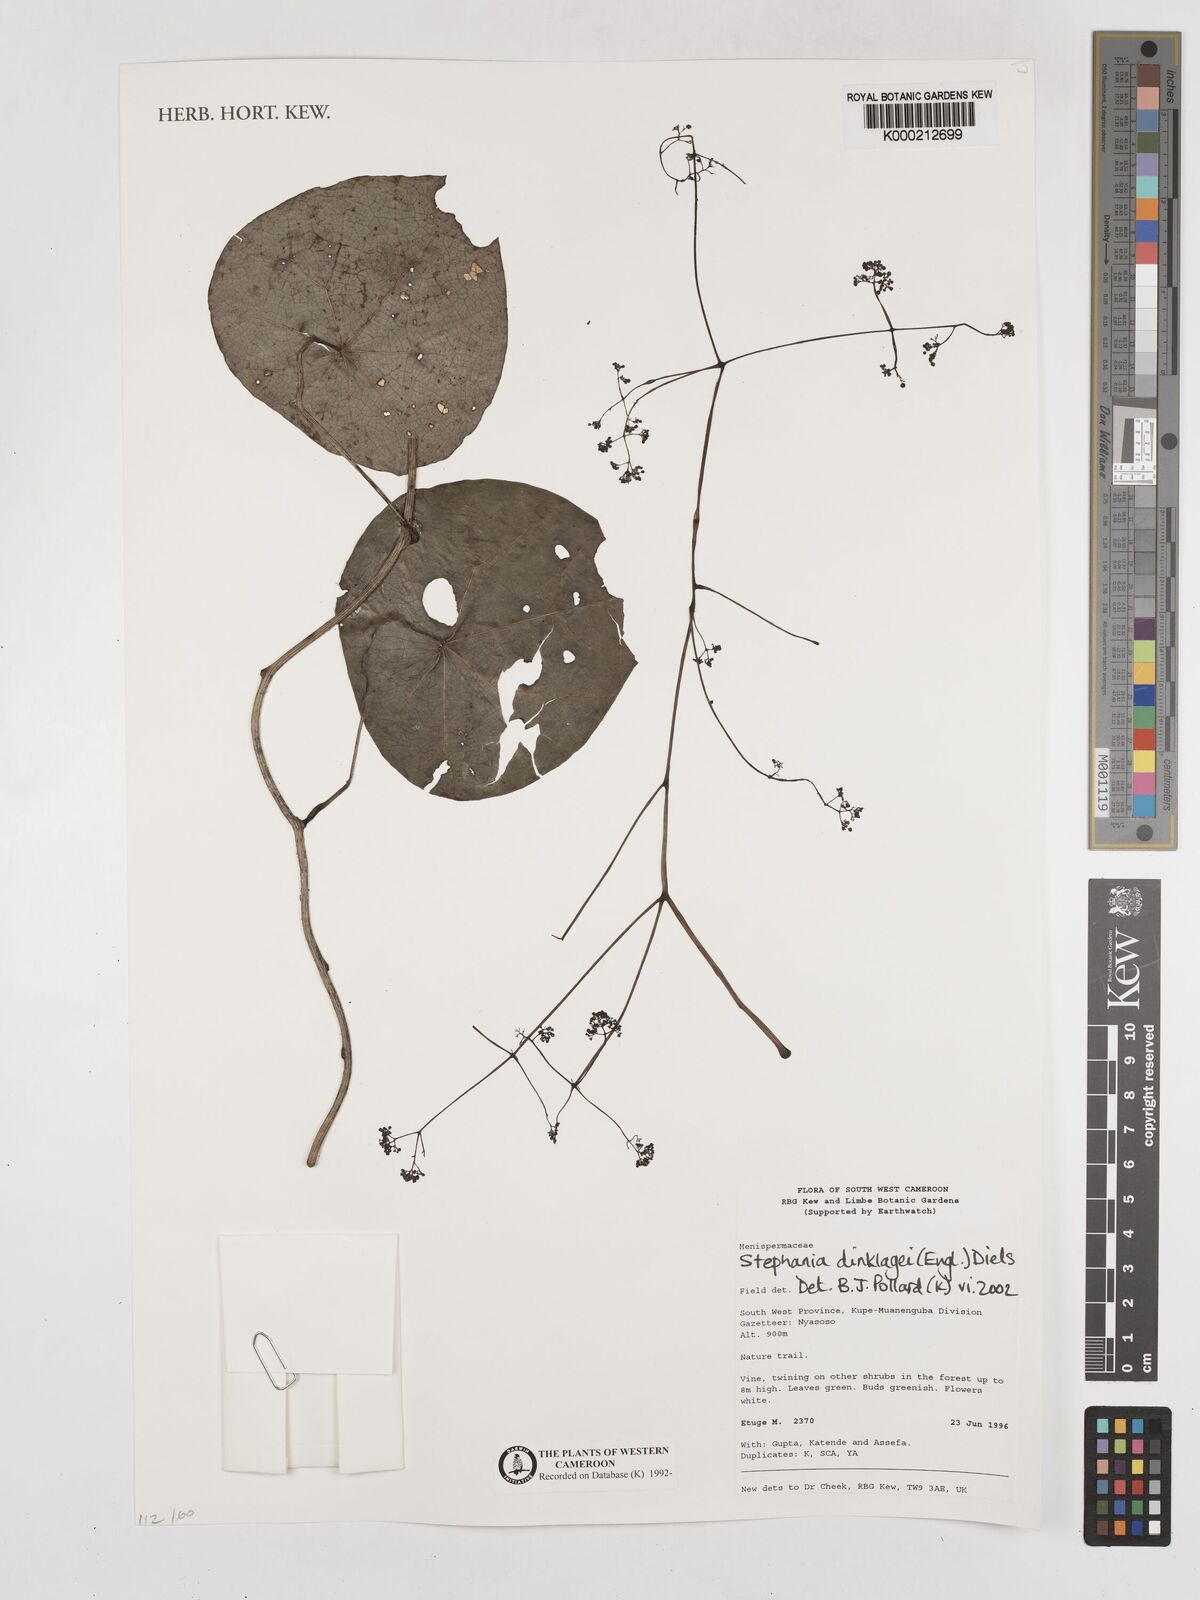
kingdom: Plantae
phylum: Tracheophyta
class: Magnoliopsida
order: Ranunculales
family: Menispermaceae
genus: Stephania
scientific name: Stephania dinklagei
